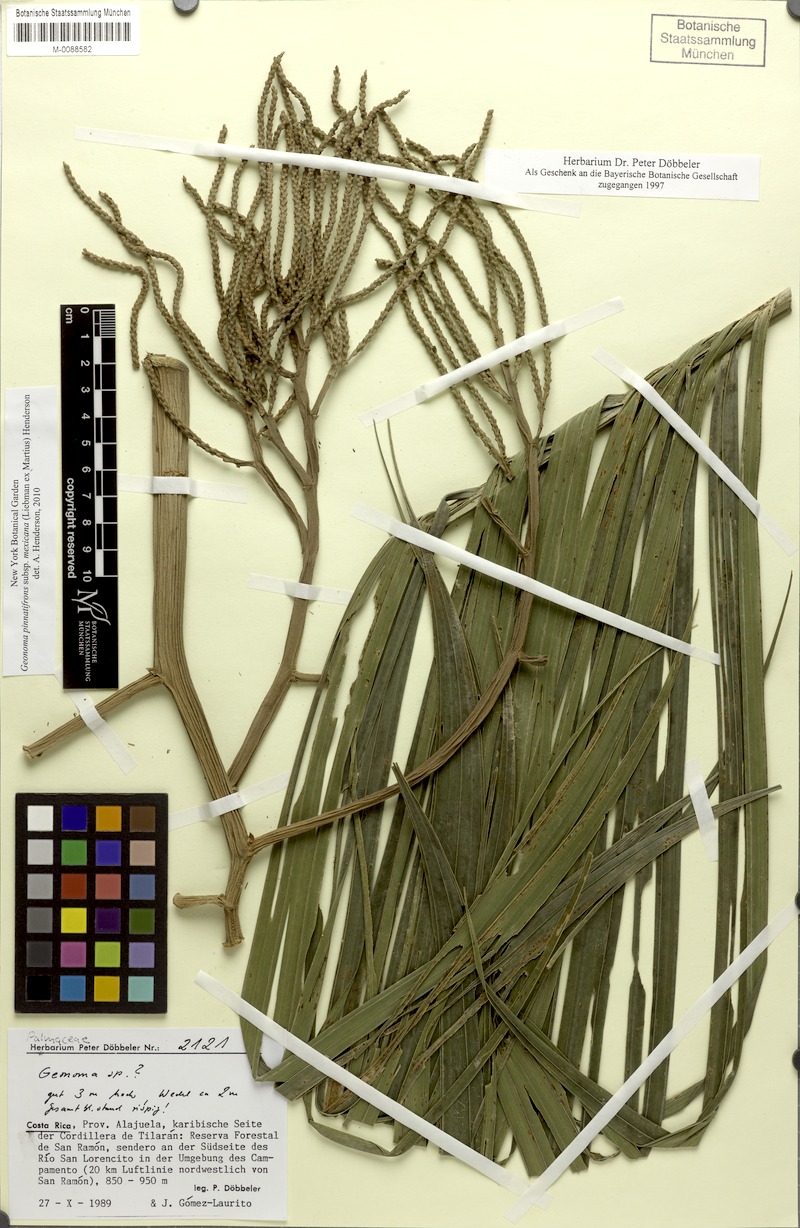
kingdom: Plantae
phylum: Tracheophyta
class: Liliopsida
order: Arecales
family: Arecaceae
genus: Geonoma
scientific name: Geonoma pinnatifrons
